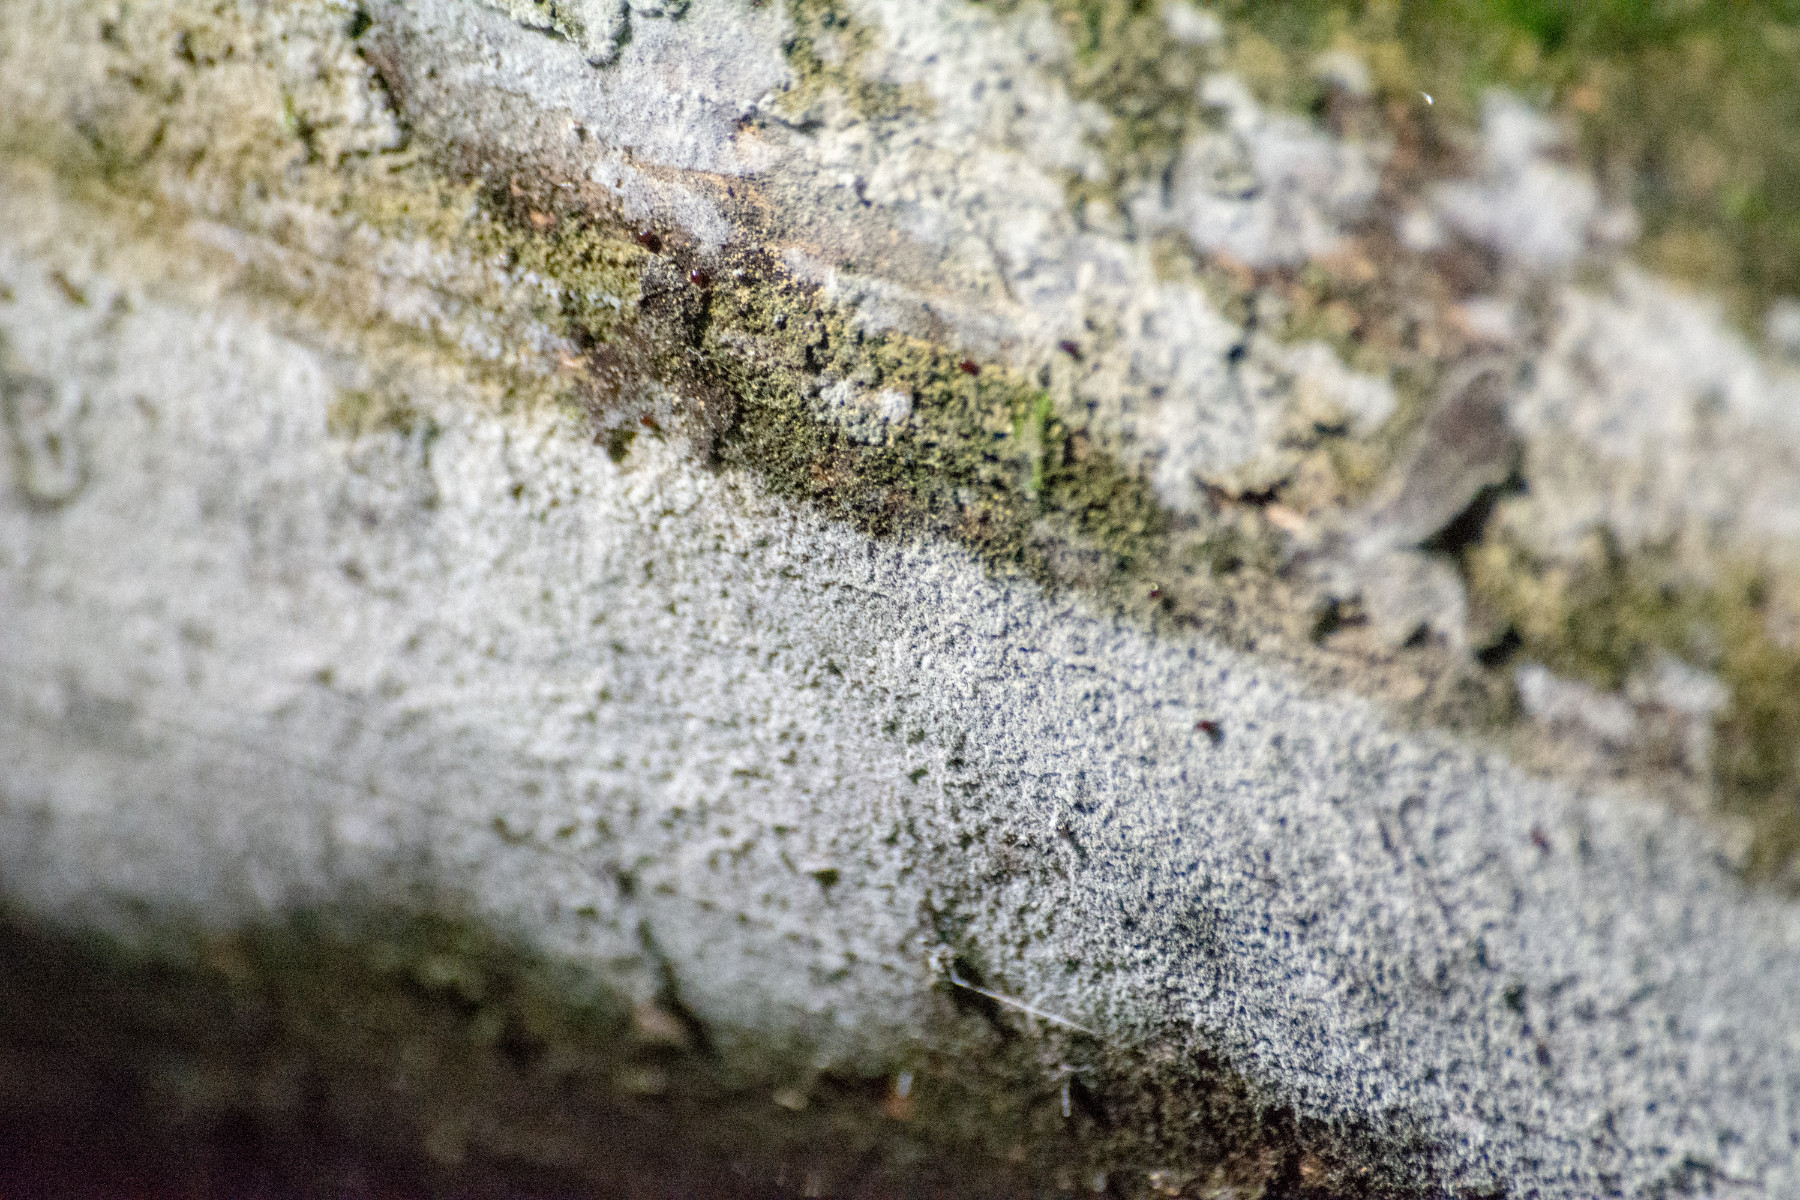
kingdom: Fungi
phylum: Basidiomycota
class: Agaricomycetes
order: Corticiales
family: Corticiaceae
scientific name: Corticiaceae
